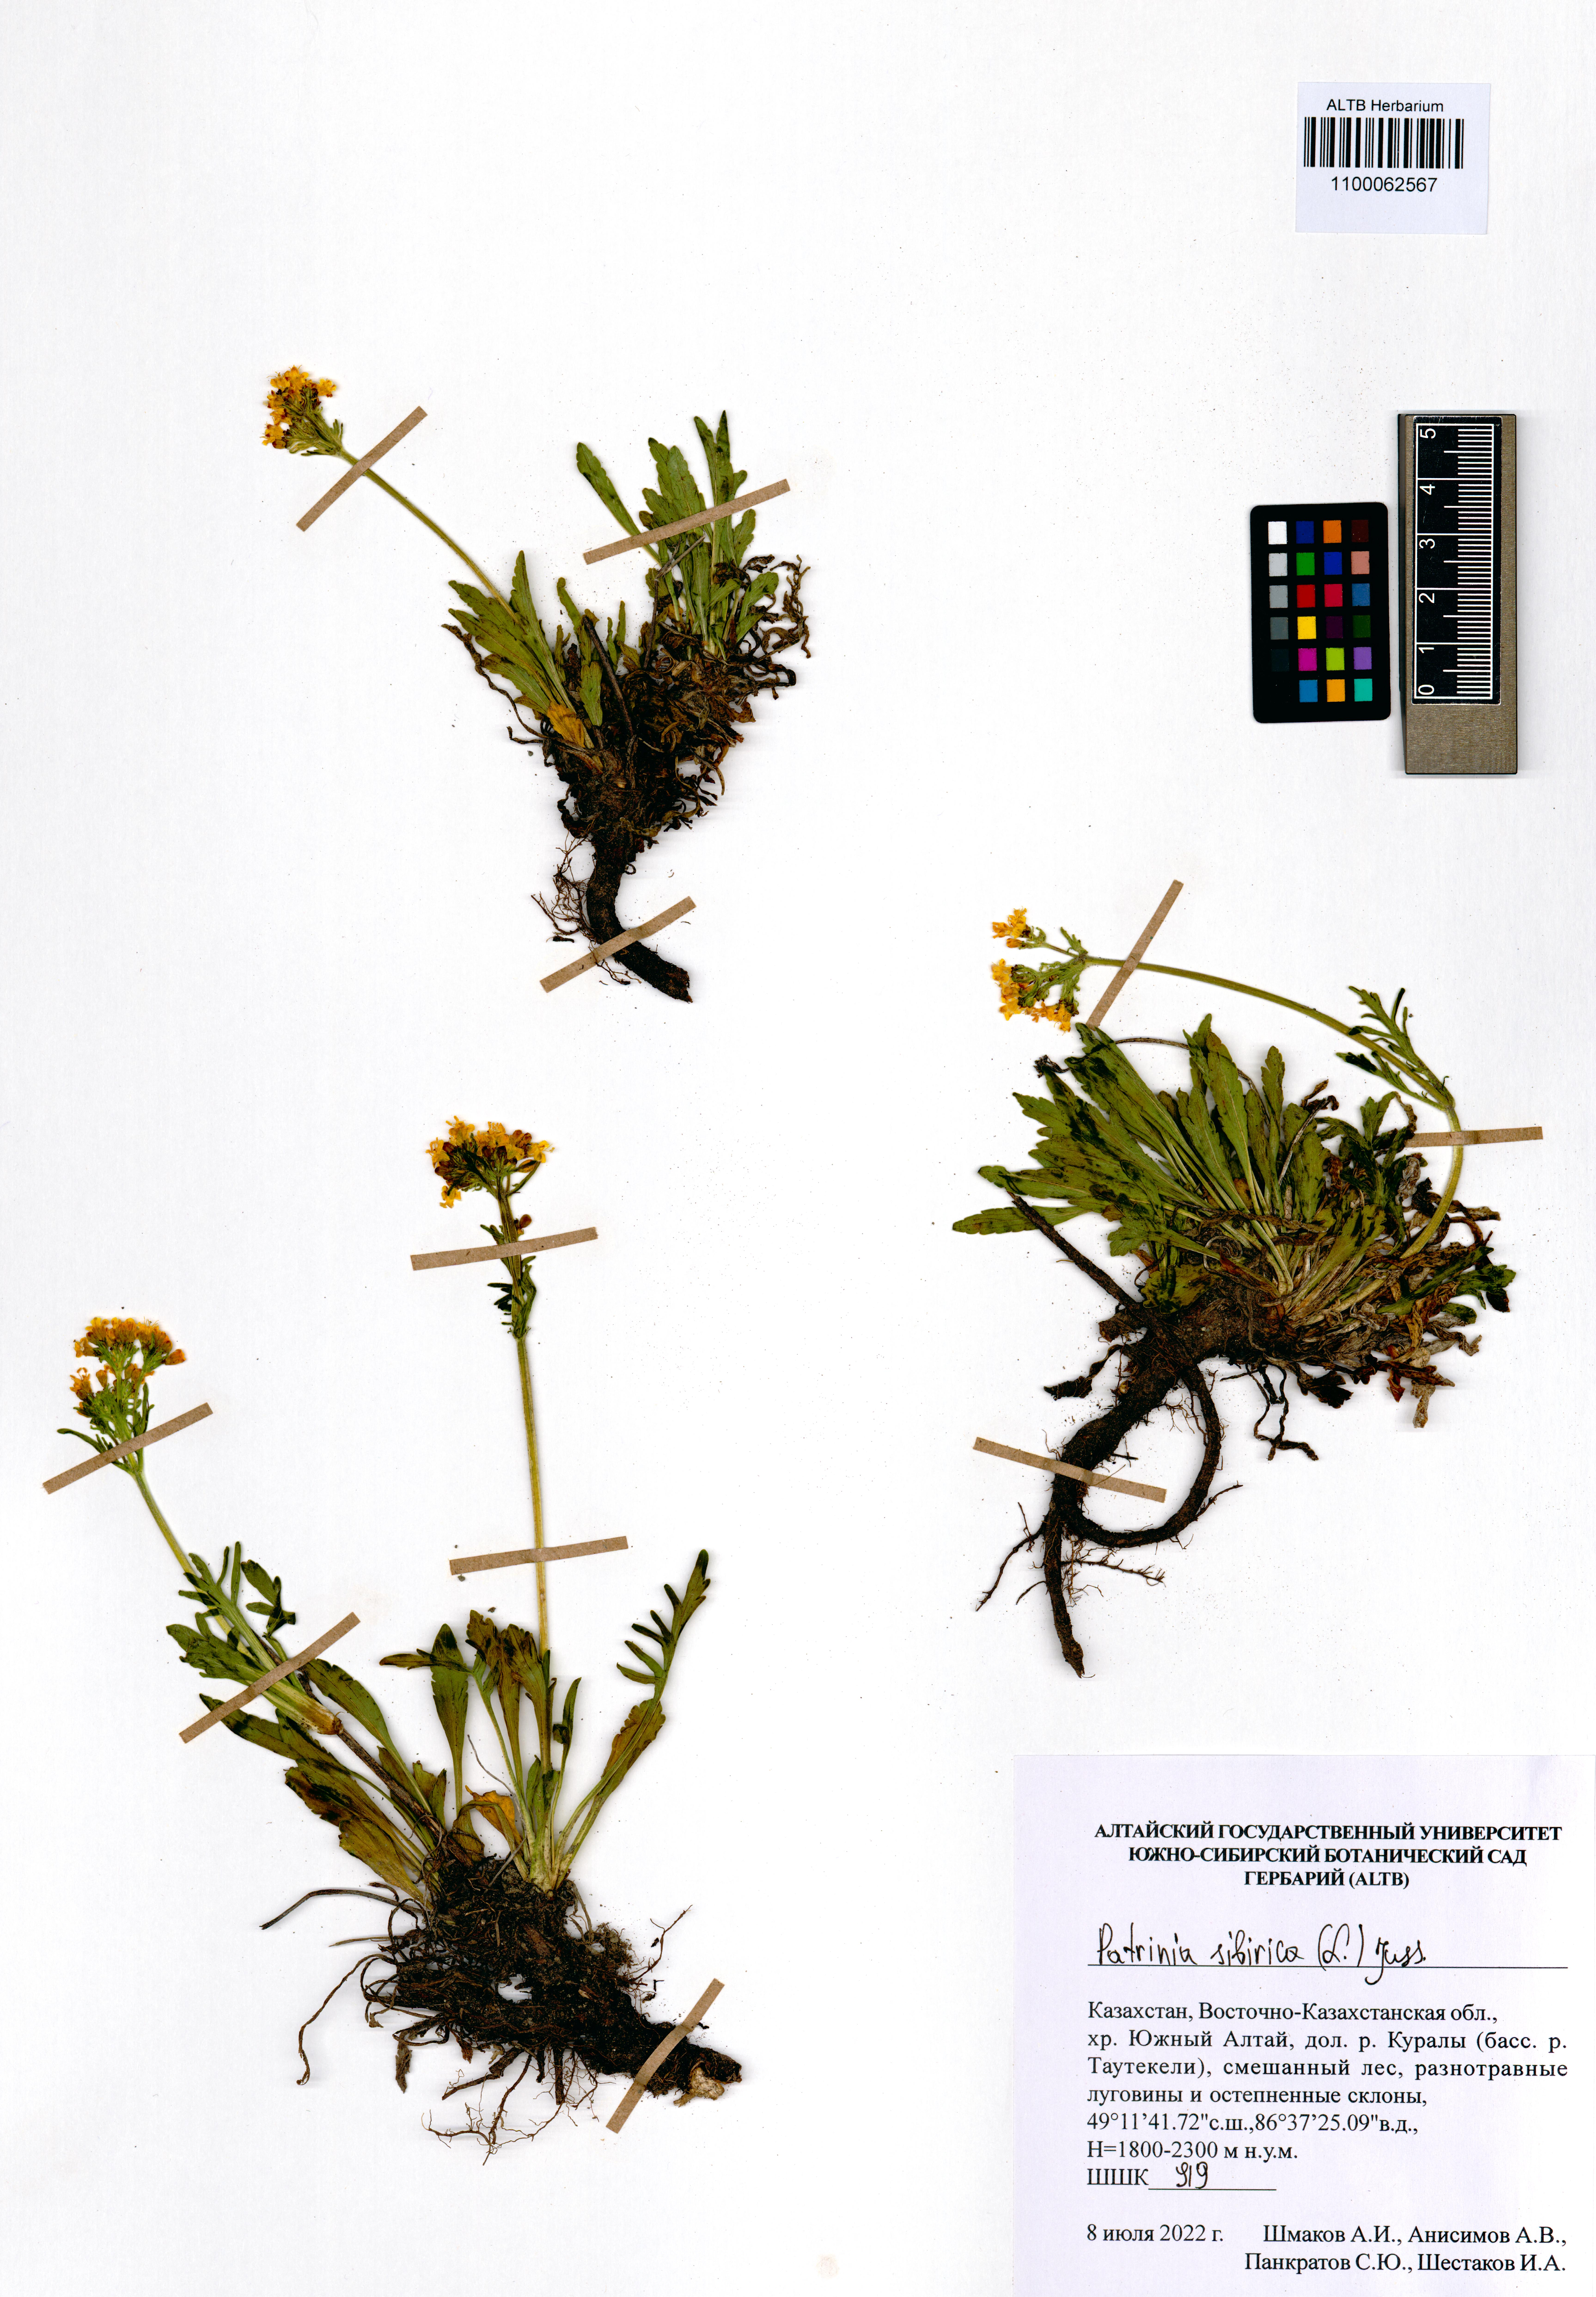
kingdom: Plantae
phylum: Tracheophyta
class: Magnoliopsida
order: Dipsacales
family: Caprifoliaceae
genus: Patrinia
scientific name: Patrinia sibirica
